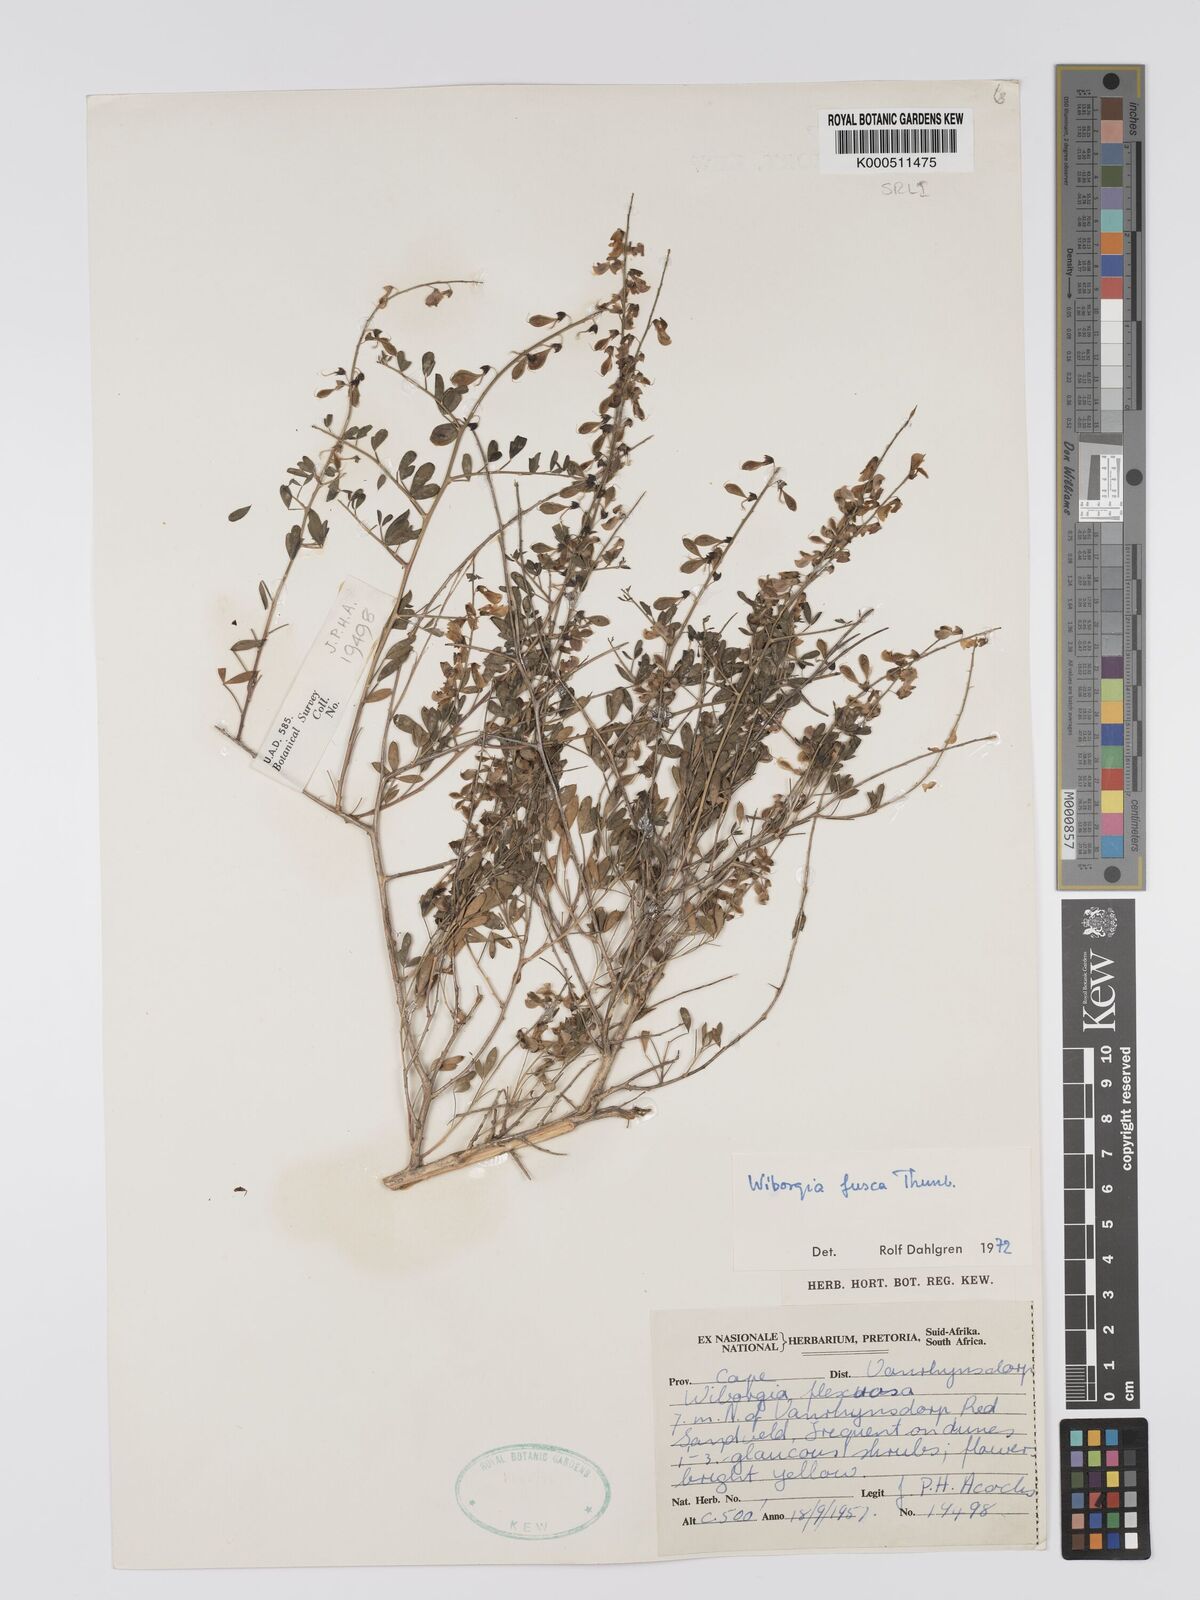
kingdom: Plantae
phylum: Tracheophyta
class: Magnoliopsida
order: Fabales
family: Fabaceae
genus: Wiborgia
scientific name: Wiborgia fusca
